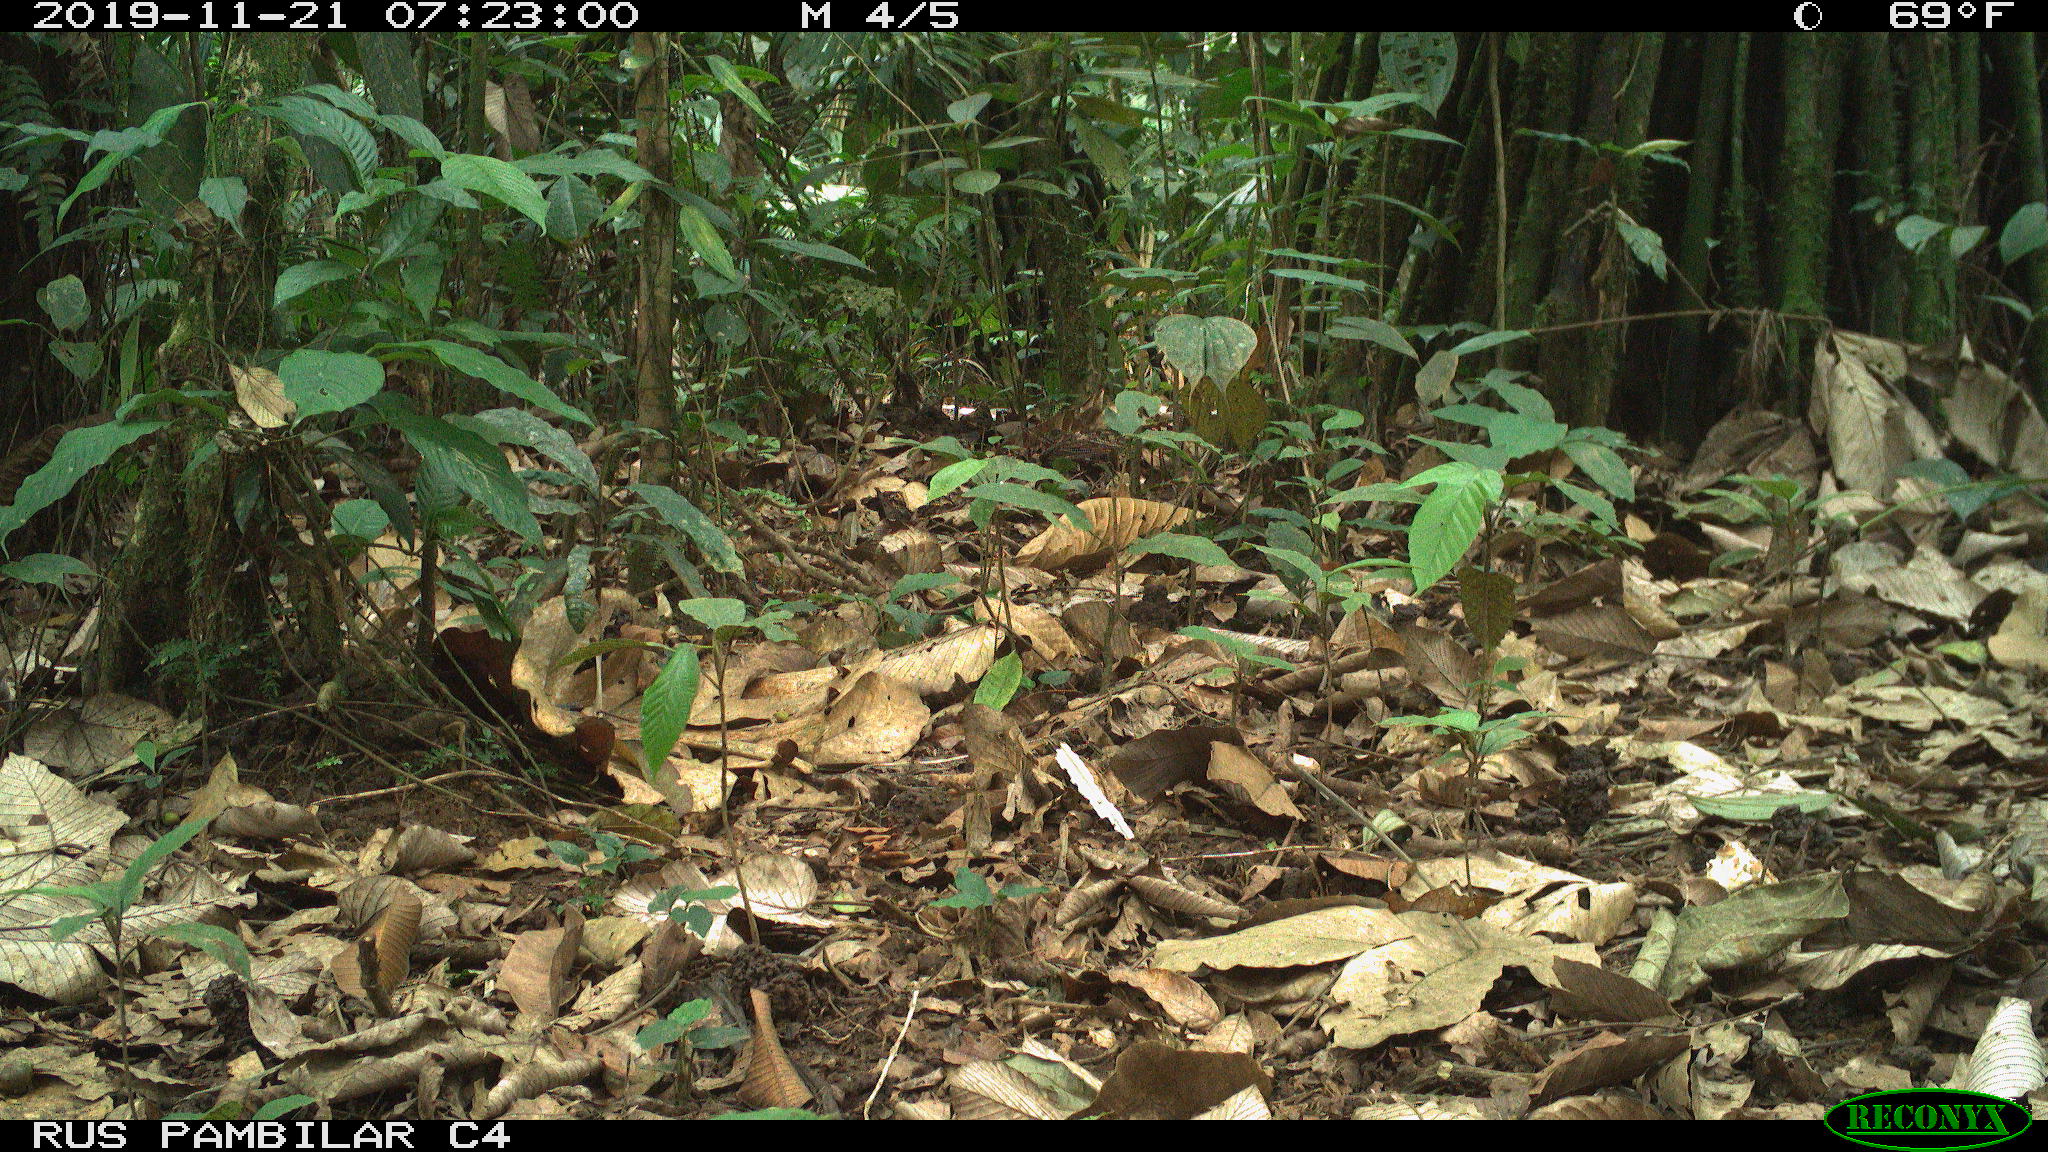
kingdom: Animalia
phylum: Chordata
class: Mammalia
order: Rodentia
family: Dasyproctidae
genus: Dasyprocta
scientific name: Dasyprocta punctata
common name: Central american agouti
